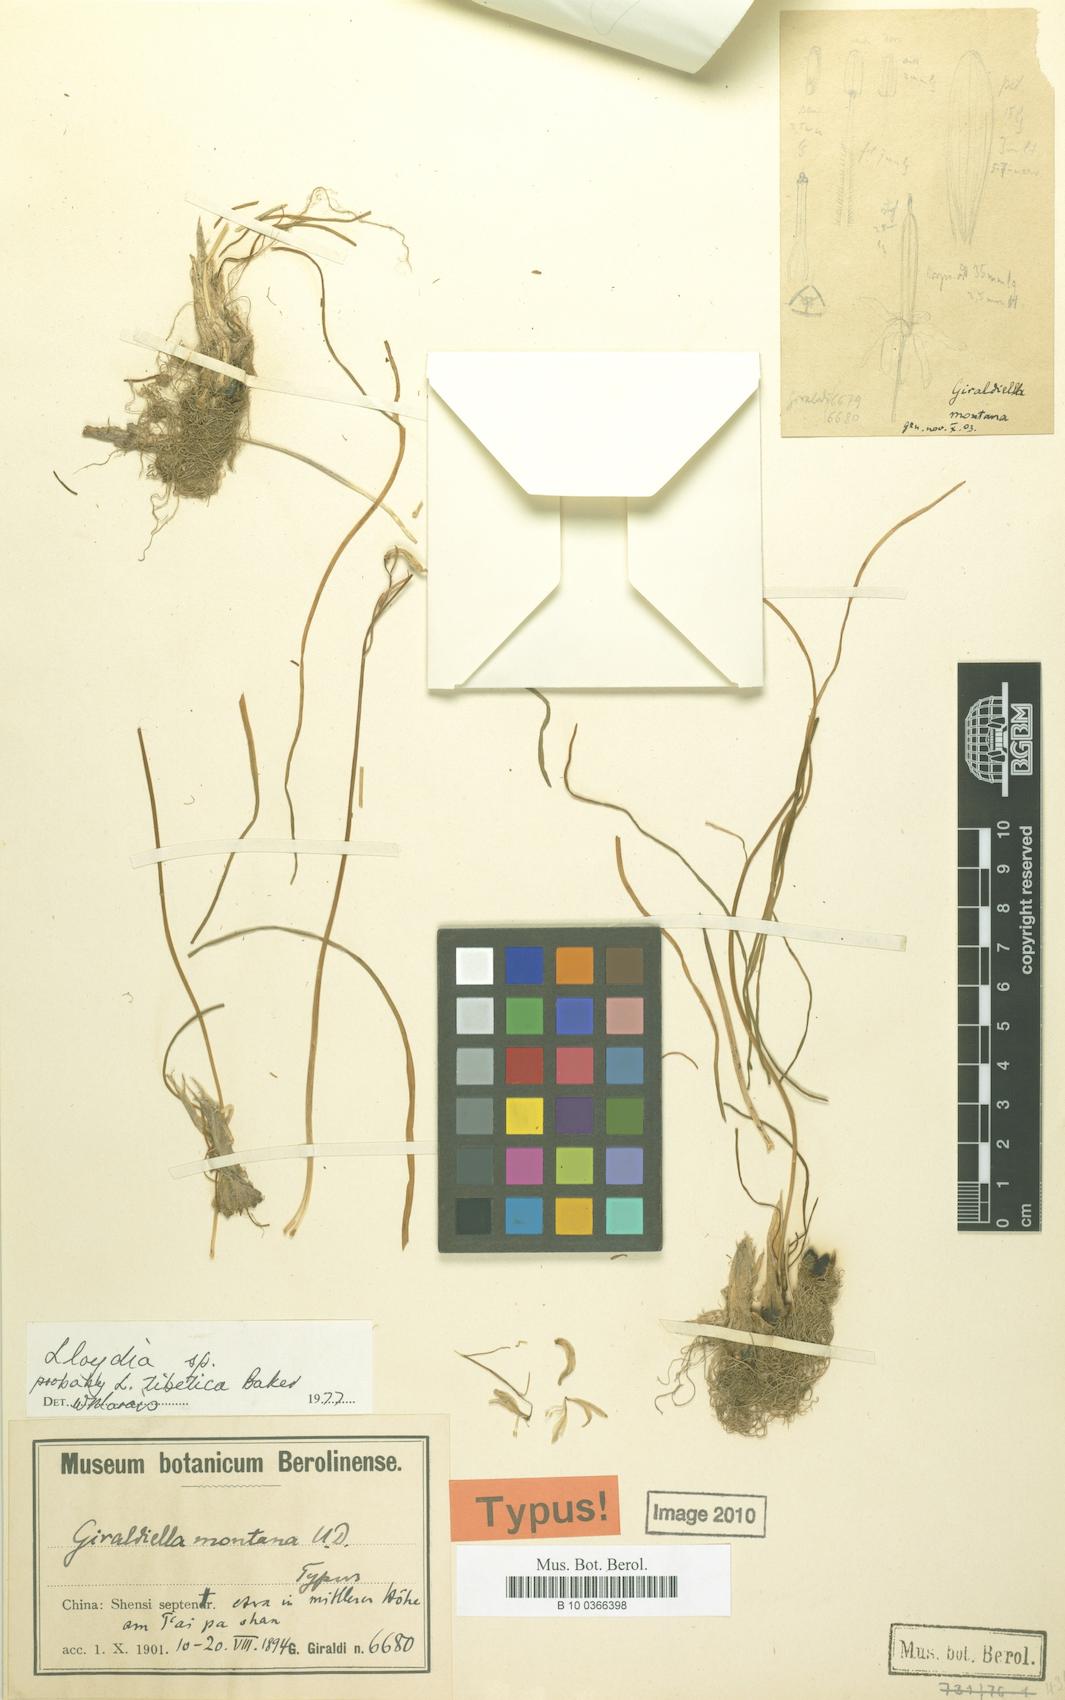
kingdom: Plantae
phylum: Tracheophyta
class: Liliopsida
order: Liliales
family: Liliaceae
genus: Gagea
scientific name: Gagea tibetica
